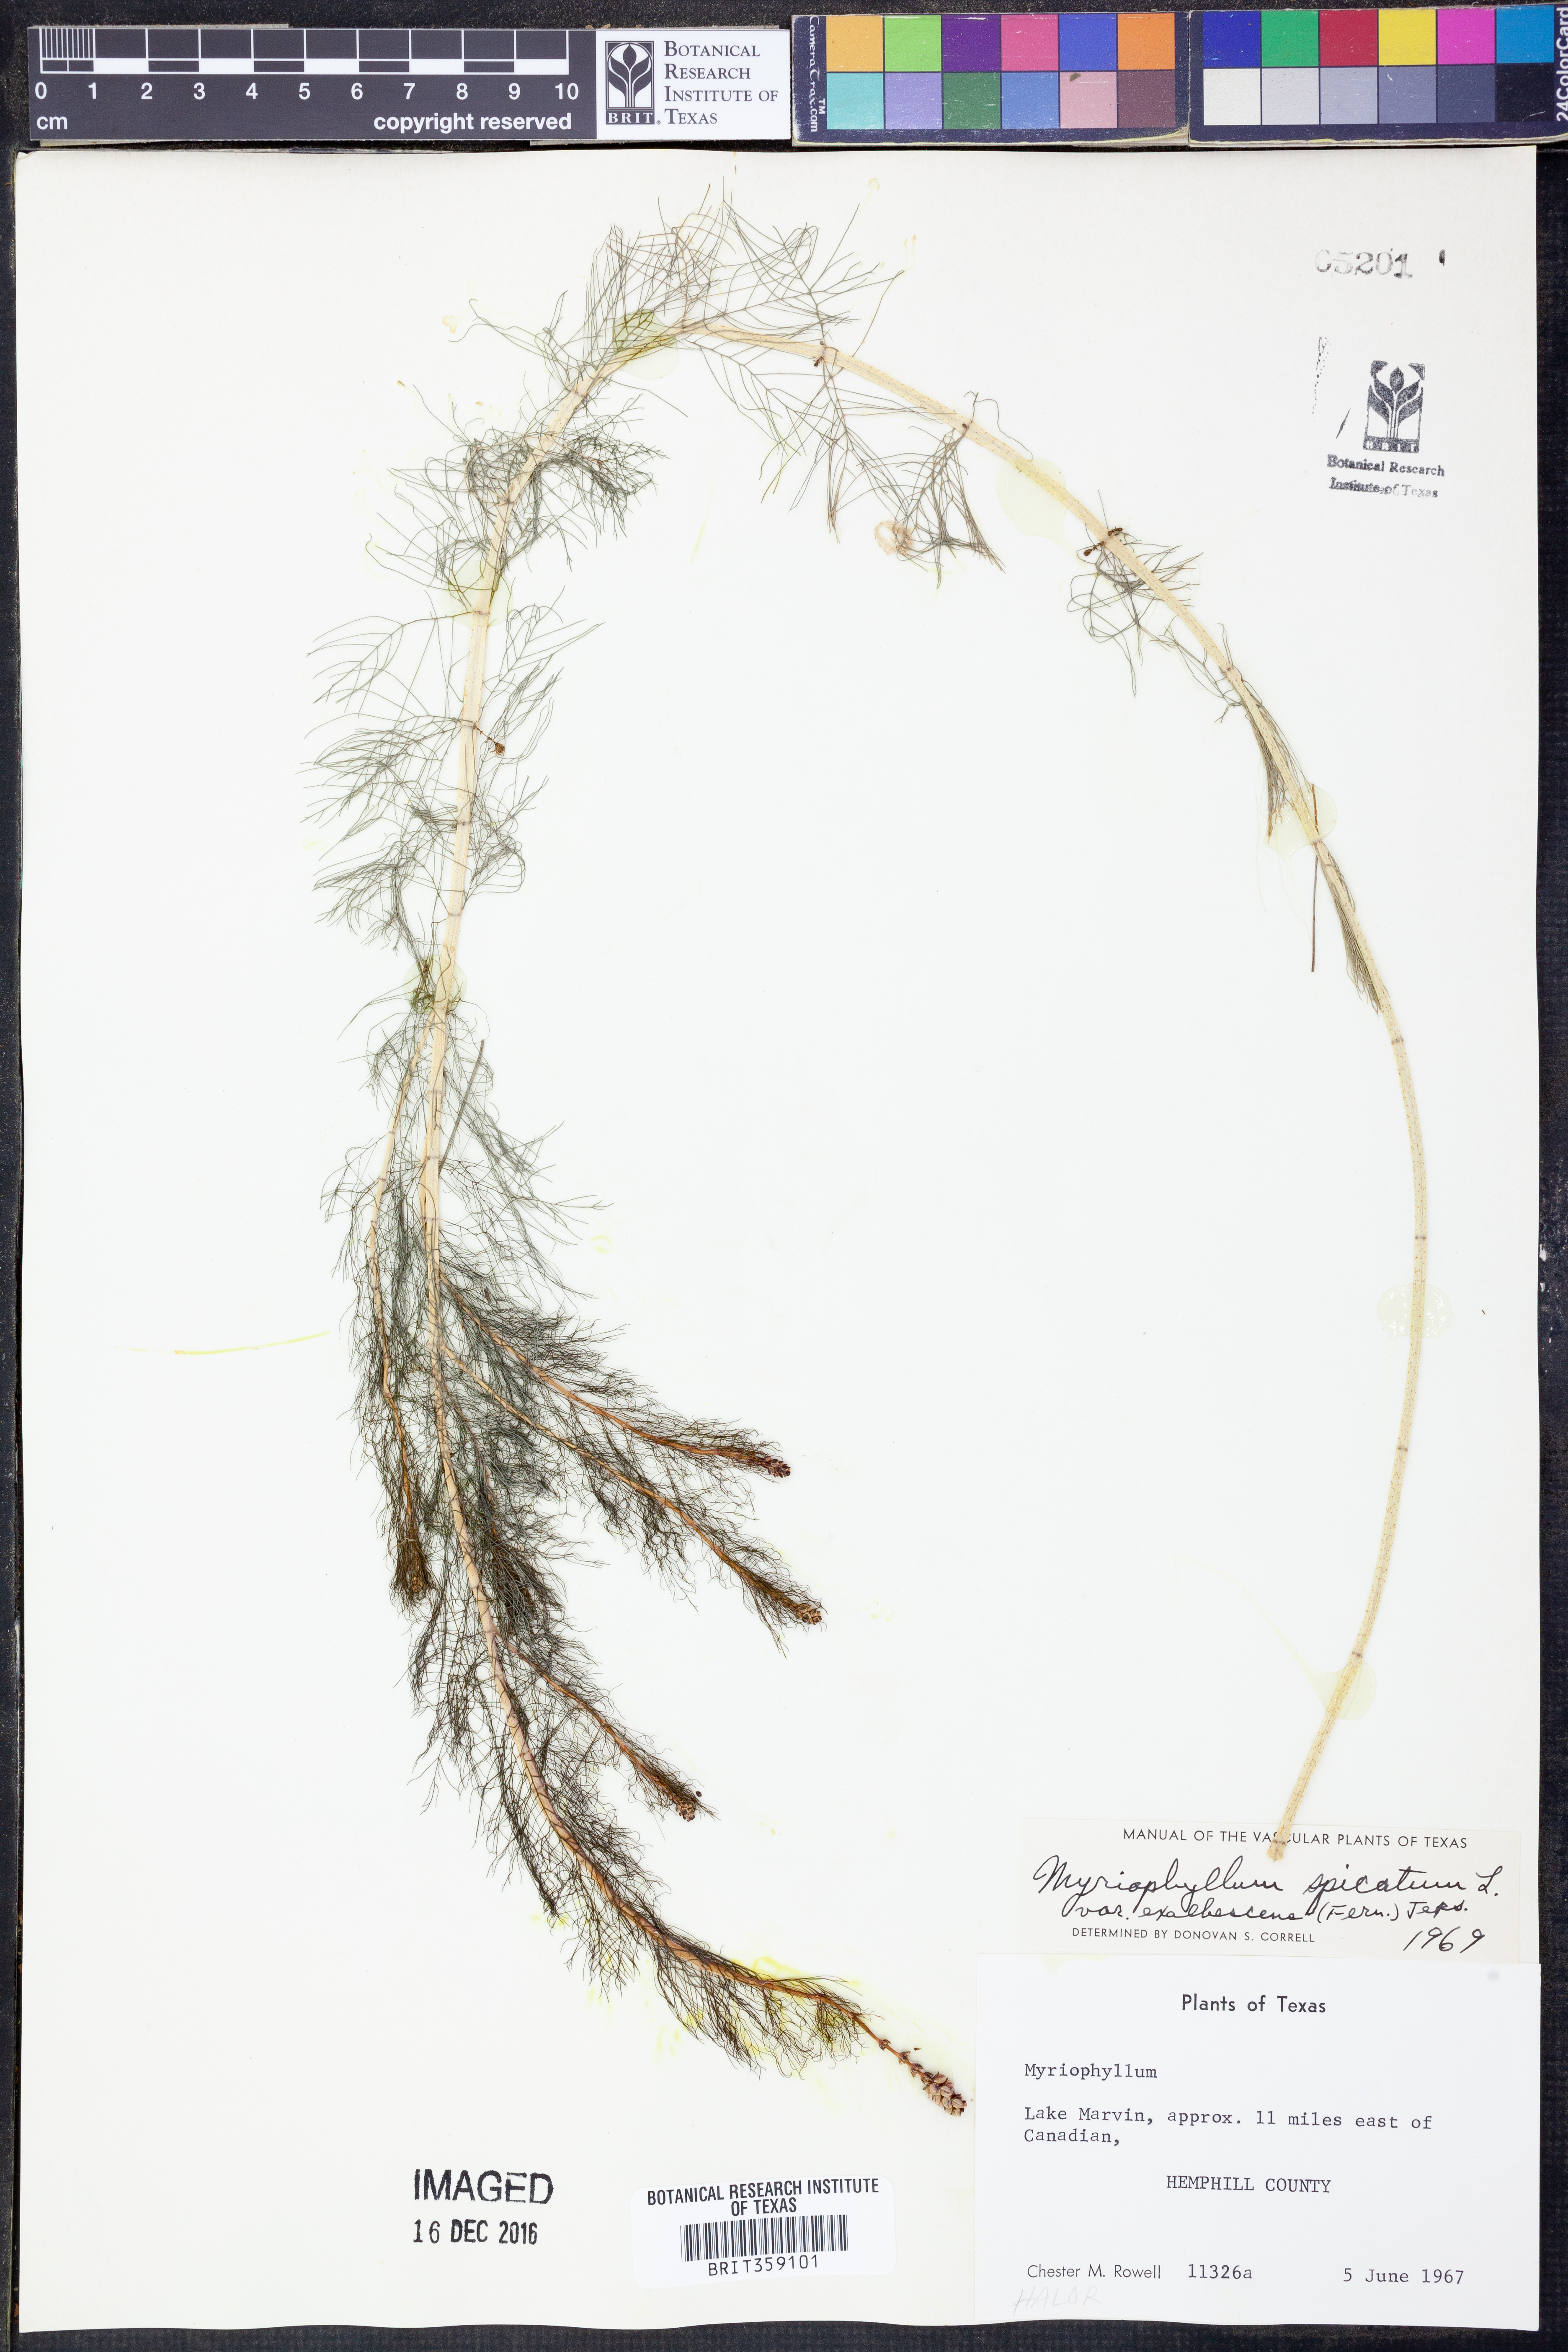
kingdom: Plantae
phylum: Tracheophyta
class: Magnoliopsida
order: Saxifragales
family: Haloragaceae
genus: Myriophyllum
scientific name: Myriophyllum sibiricum
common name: Siberian water-milfoil
